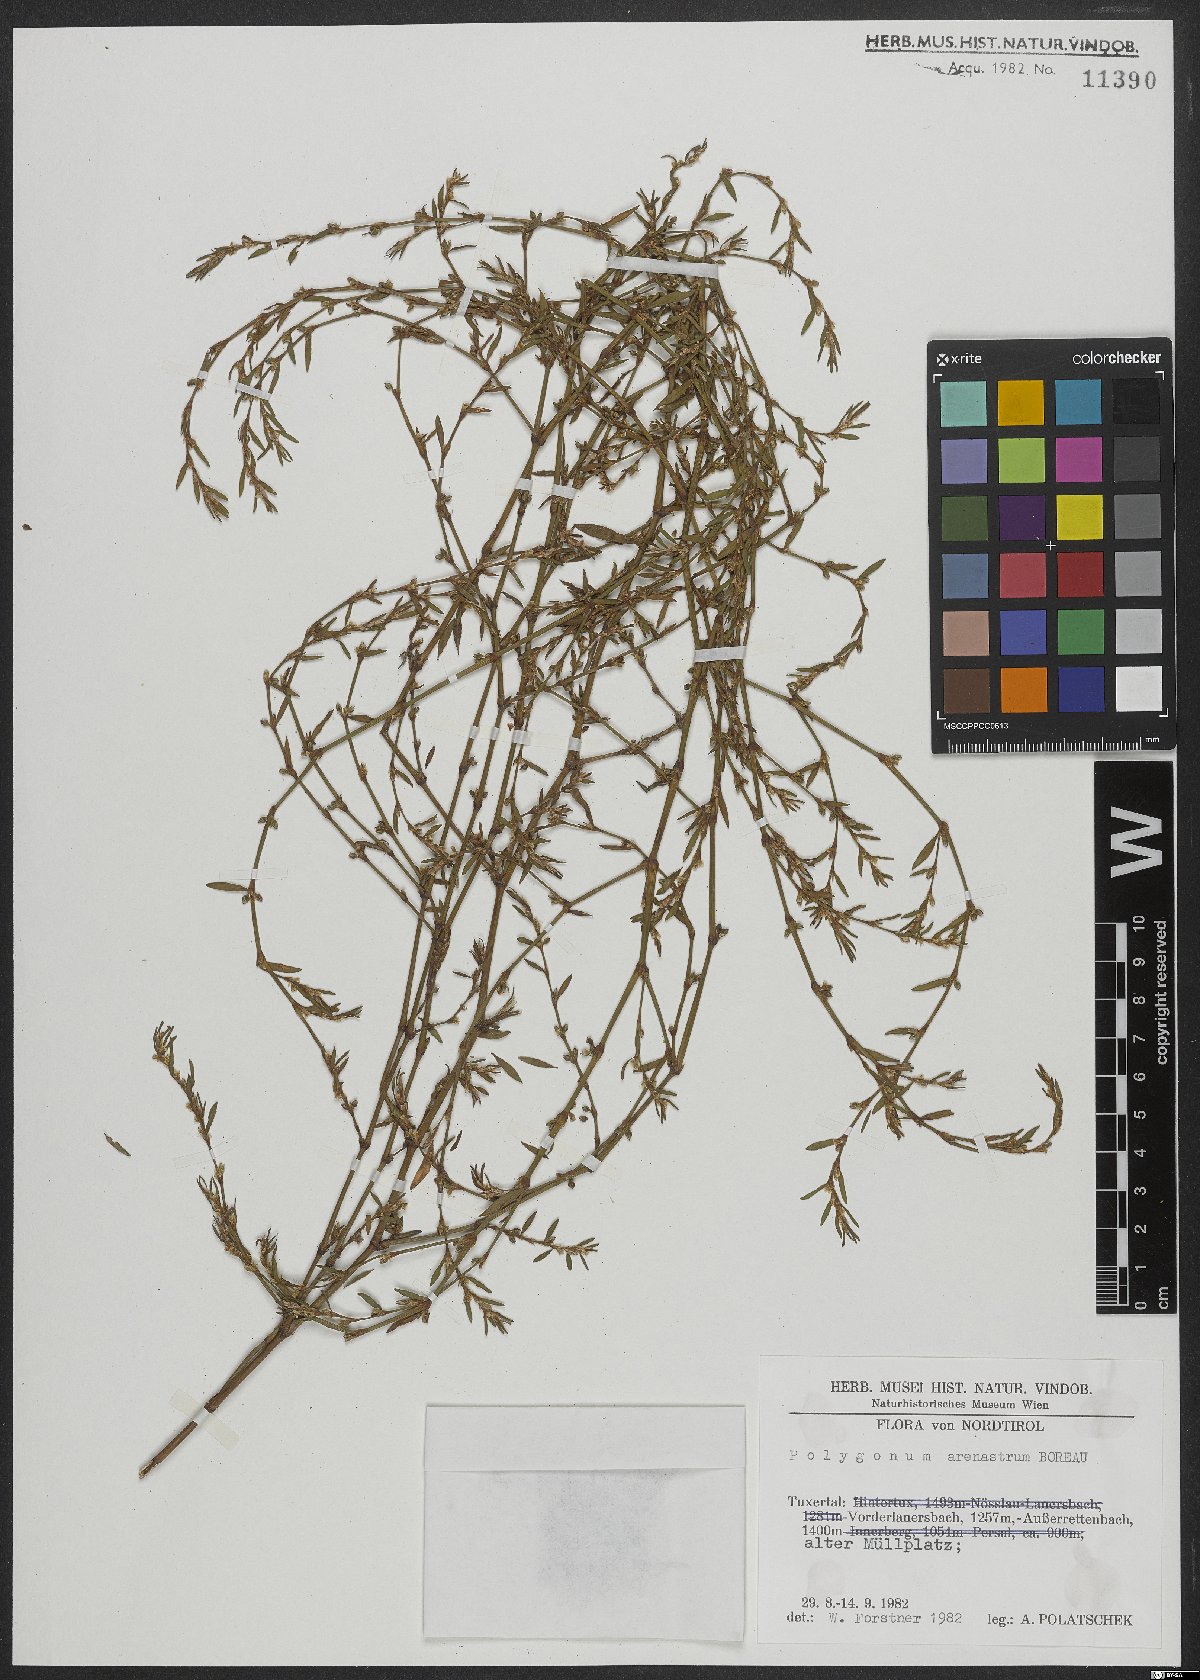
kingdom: Plantae
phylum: Tracheophyta
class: Magnoliopsida
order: Caryophyllales
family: Polygonaceae
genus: Polygonum
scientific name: Polygonum arenastrum
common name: Equal-leaved knotgrass
